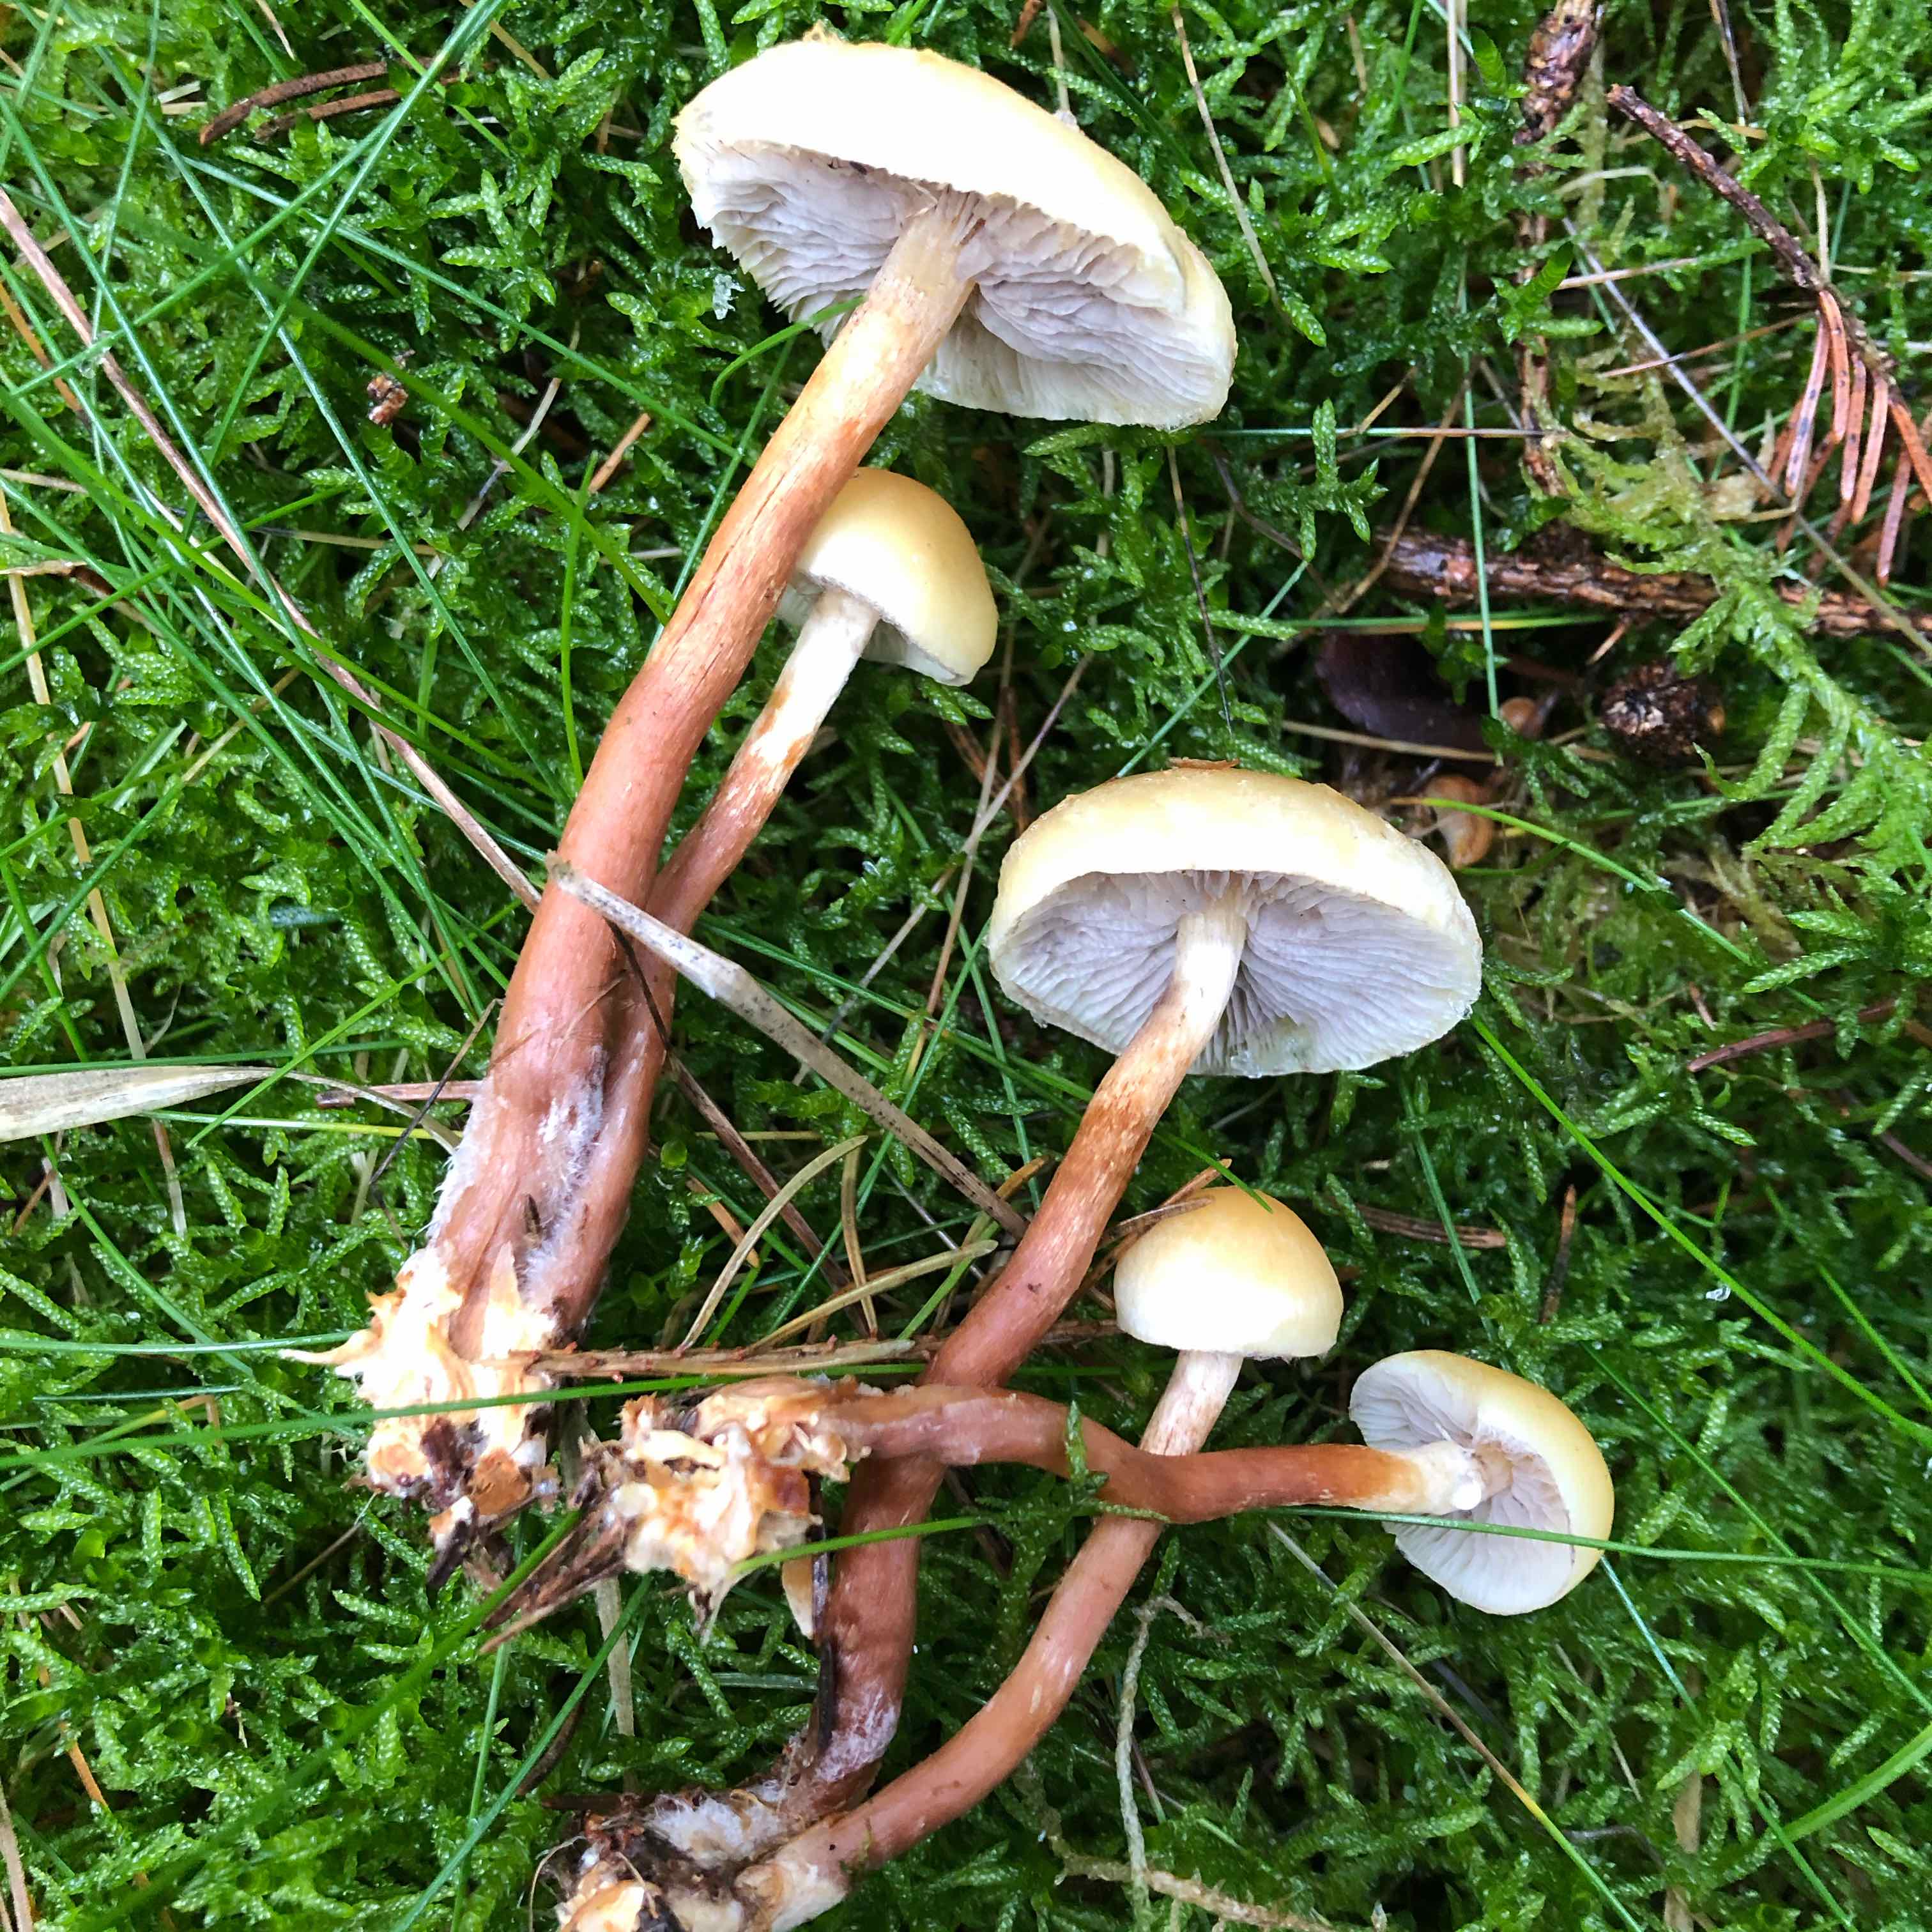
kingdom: Fungi
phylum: Basidiomycota
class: Agaricomycetes
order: Agaricales
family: Strophariaceae
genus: Hypholoma
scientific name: Hypholoma capnoides
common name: gran-svovlhat
